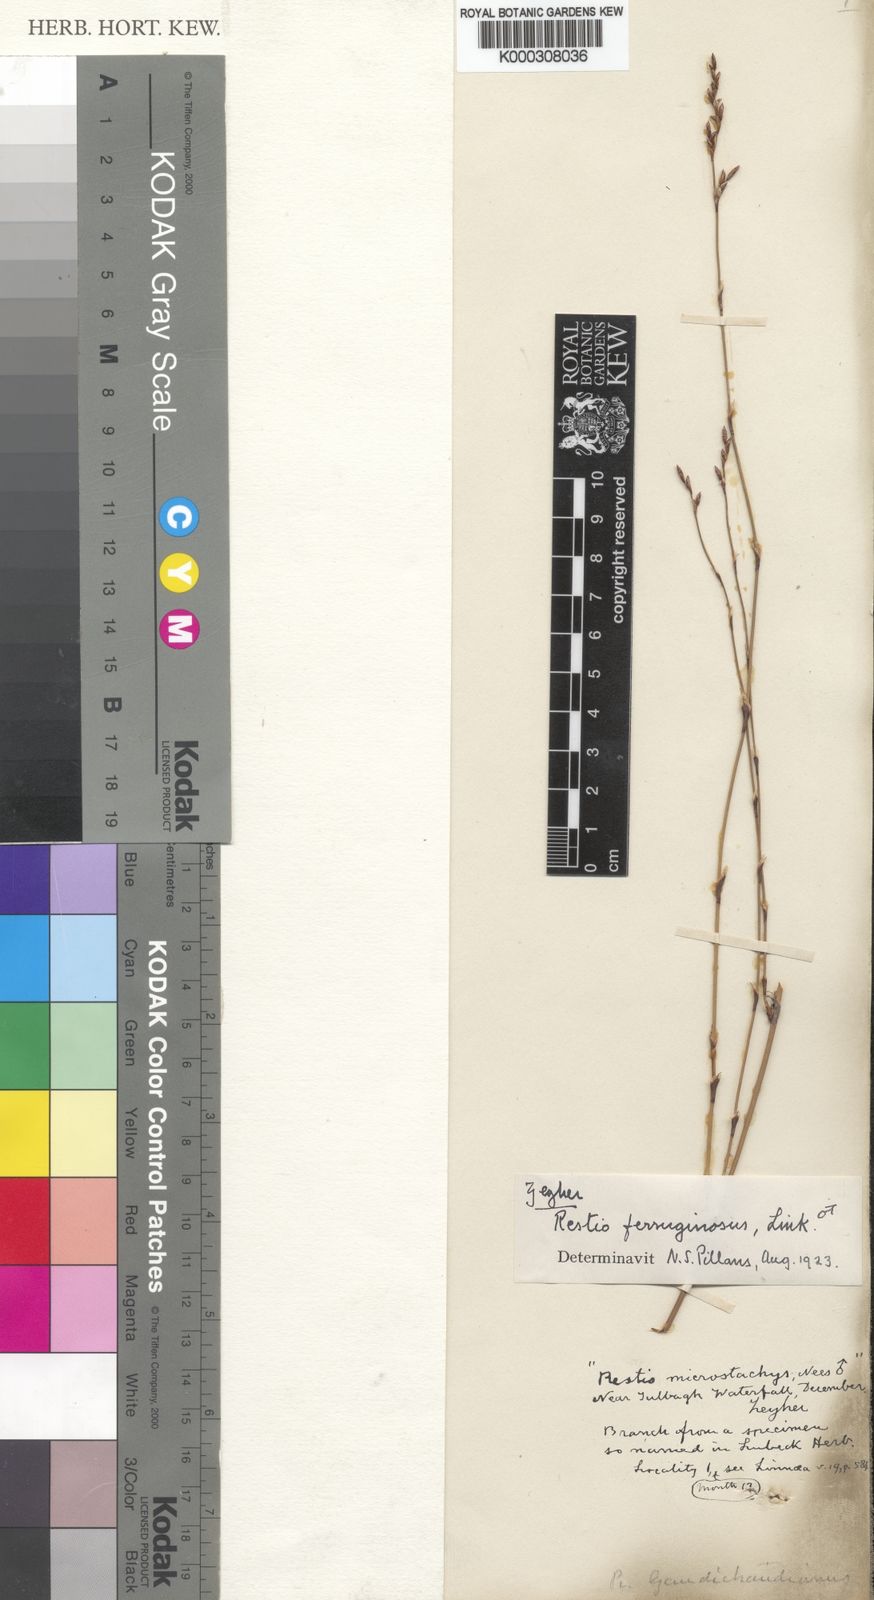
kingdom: Plantae
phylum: Tracheophyta
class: Liliopsida
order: Poales
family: Restionaceae
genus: Restio
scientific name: Restio gaudichaudianus
